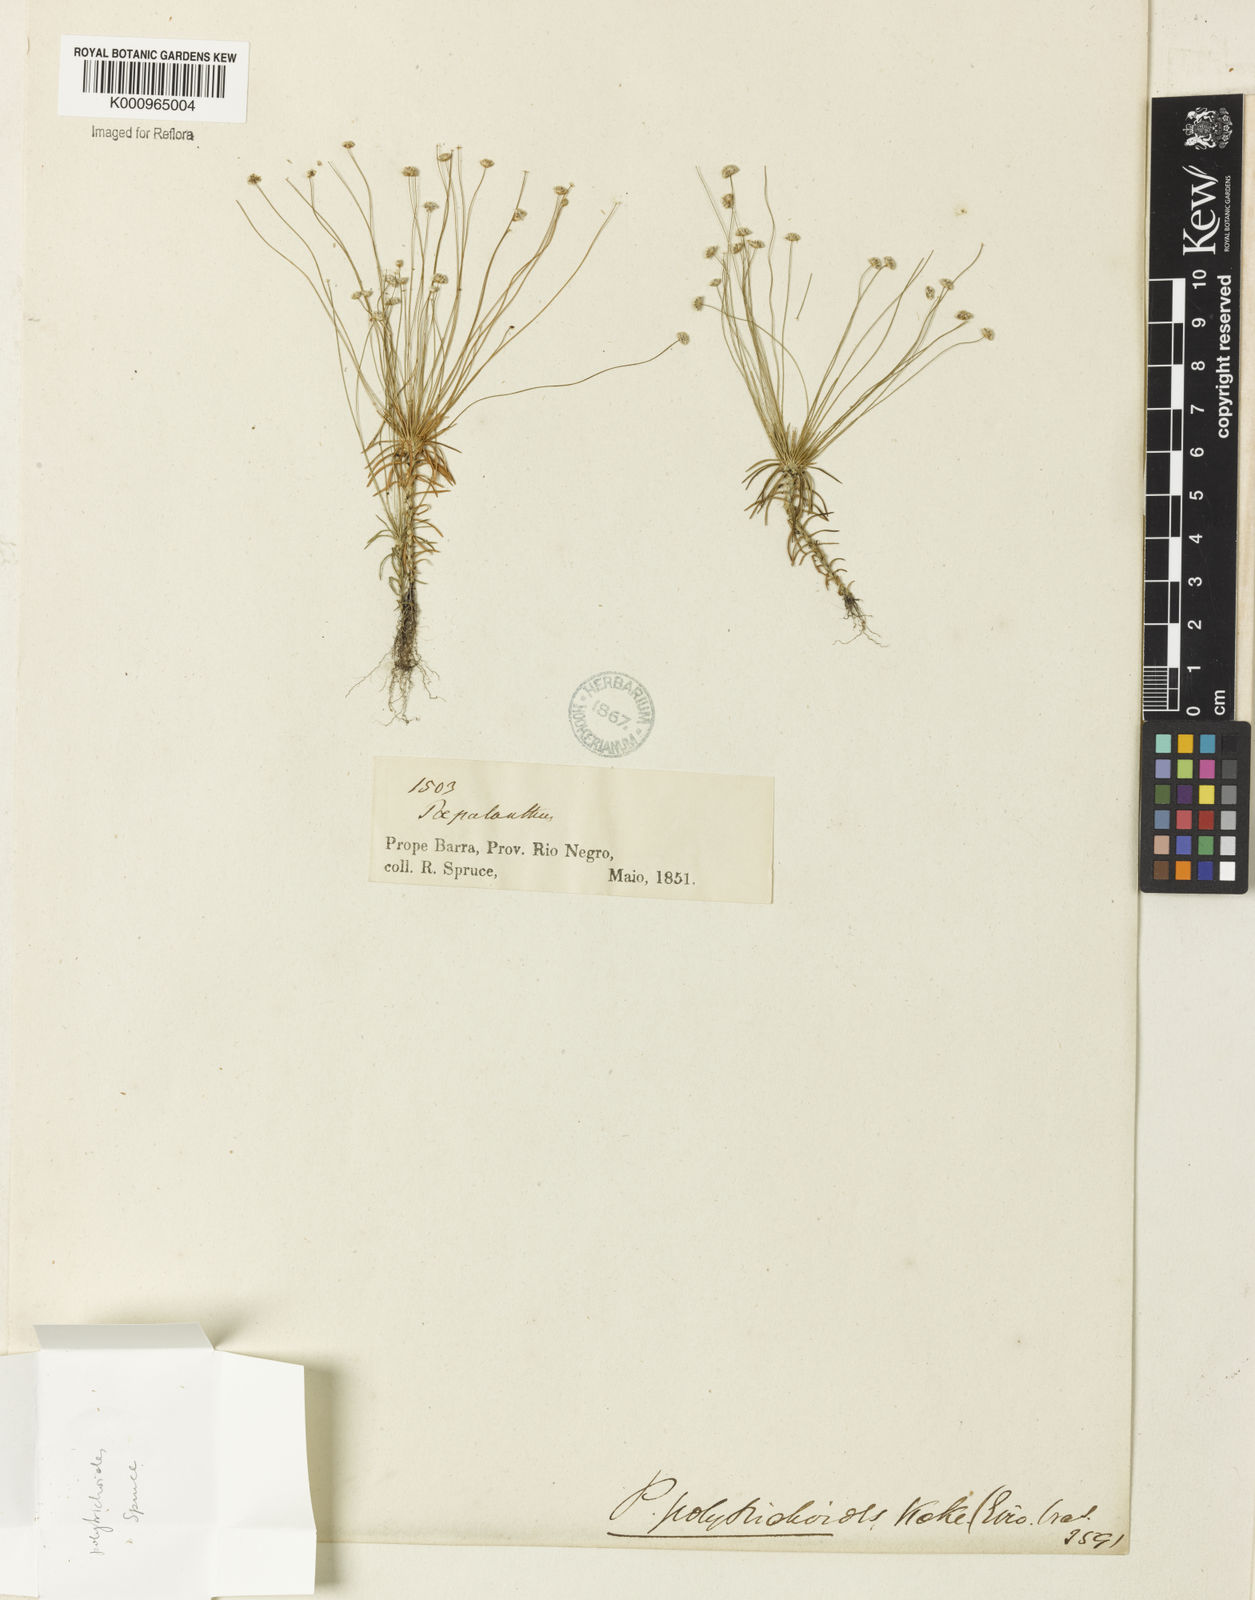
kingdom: Plantae
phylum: Tracheophyta
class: Liliopsida
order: Poales
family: Eriocaulaceae
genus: Paepalanthus
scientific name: Paepalanthus subtilis
